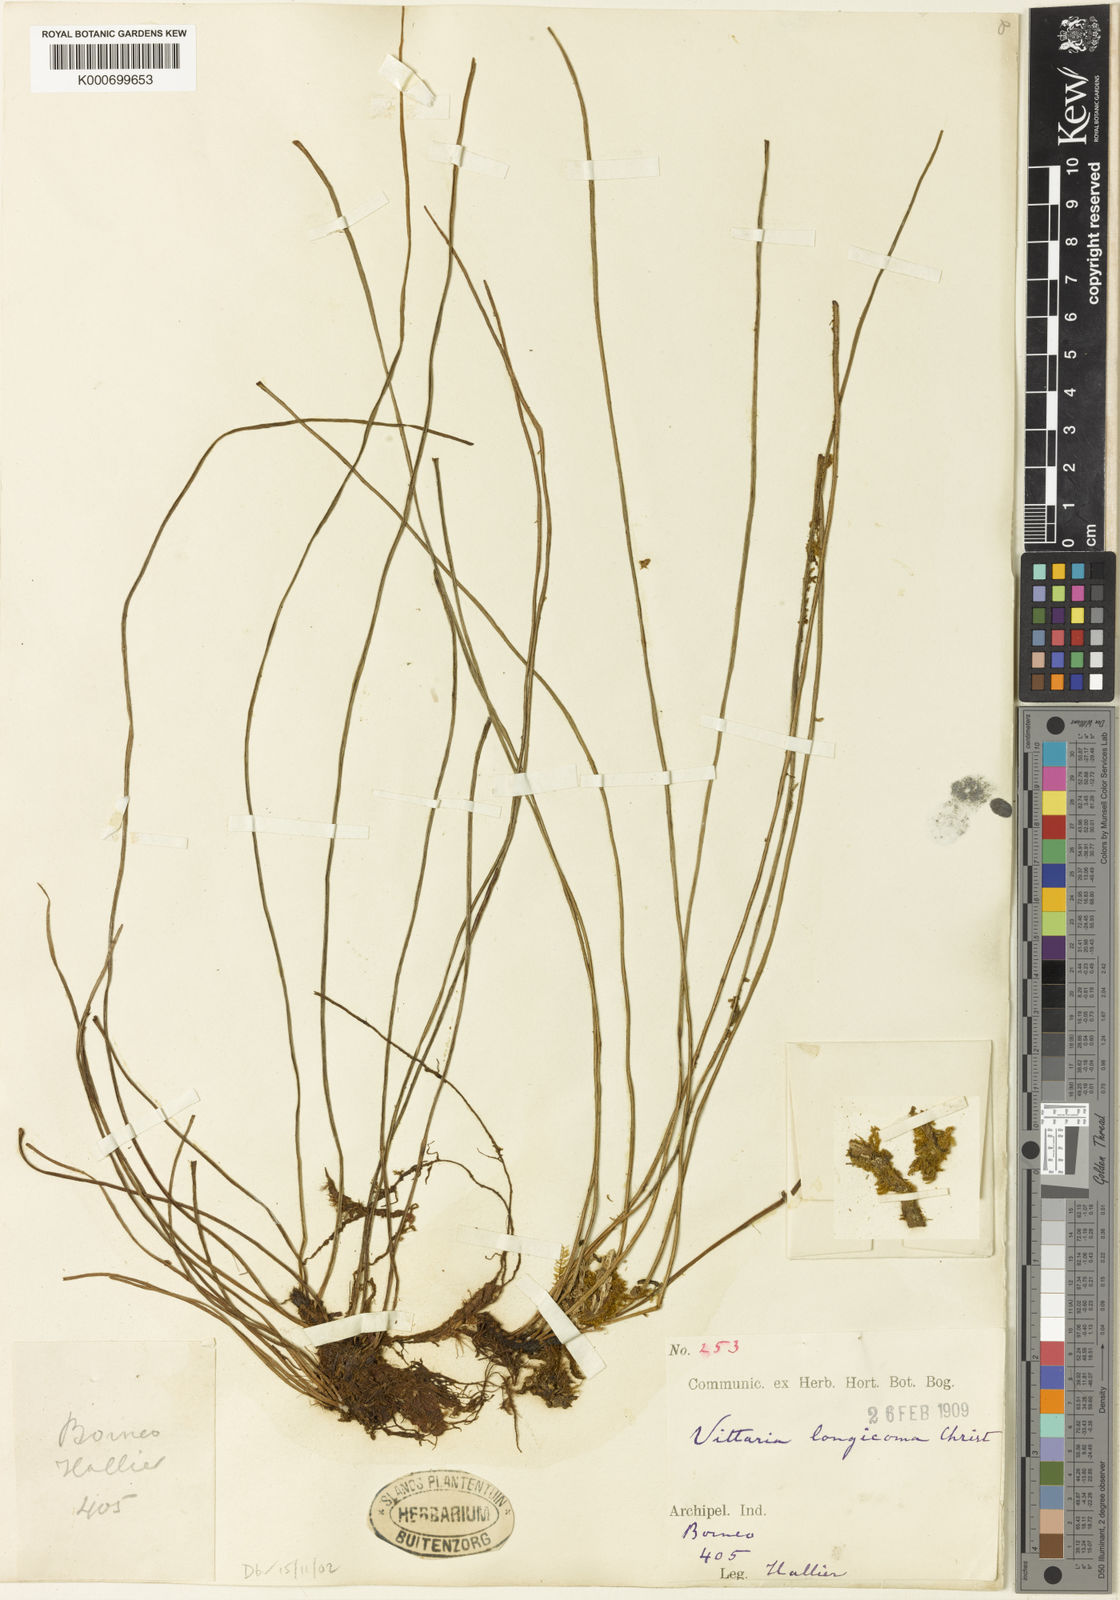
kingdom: Plantae
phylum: Tracheophyta
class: Polypodiopsida
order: Polypodiales
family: Pteridaceae
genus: Haplopteris
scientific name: Haplopteris longicoma
